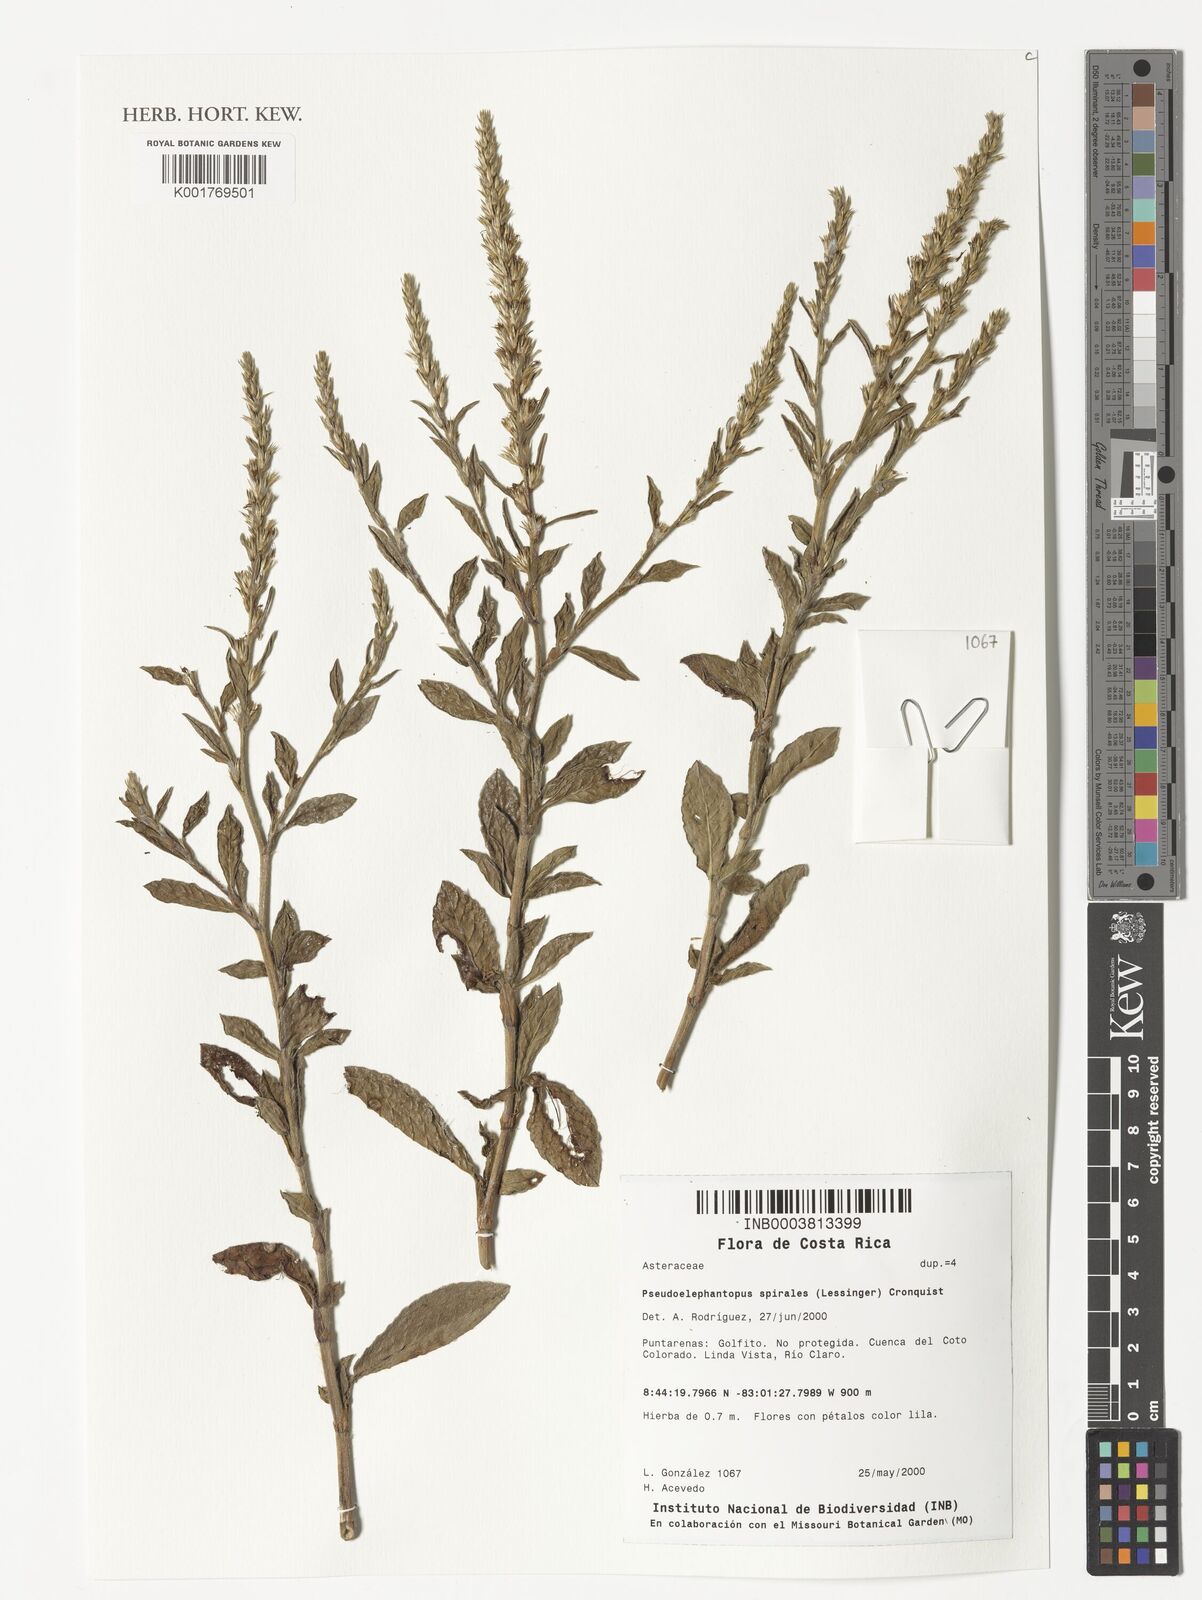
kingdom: Plantae
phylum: Tracheophyta
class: Magnoliopsida
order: Asterales
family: Asteraceae
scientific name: Asteraceae
